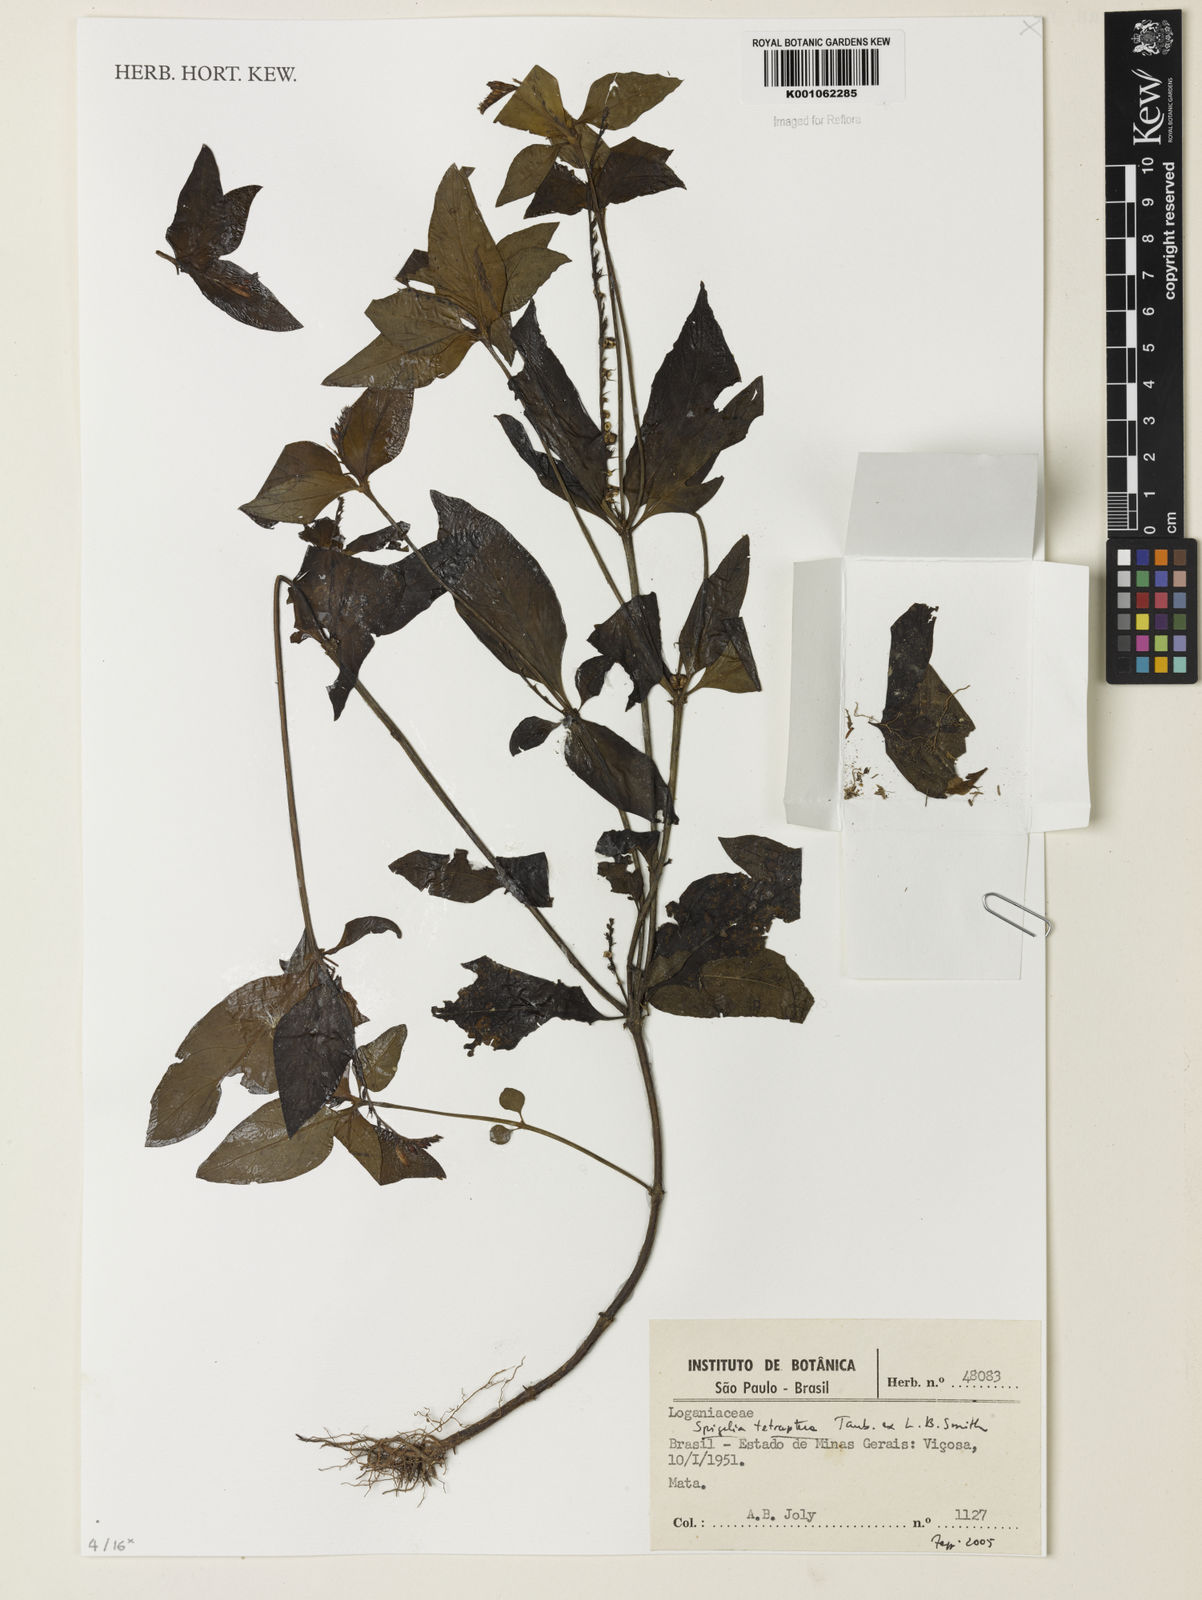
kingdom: Plantae
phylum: Tracheophyta
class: Magnoliopsida
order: Gentianales
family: Loganiaceae
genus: Spigelia
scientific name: Spigelia tetraptera
